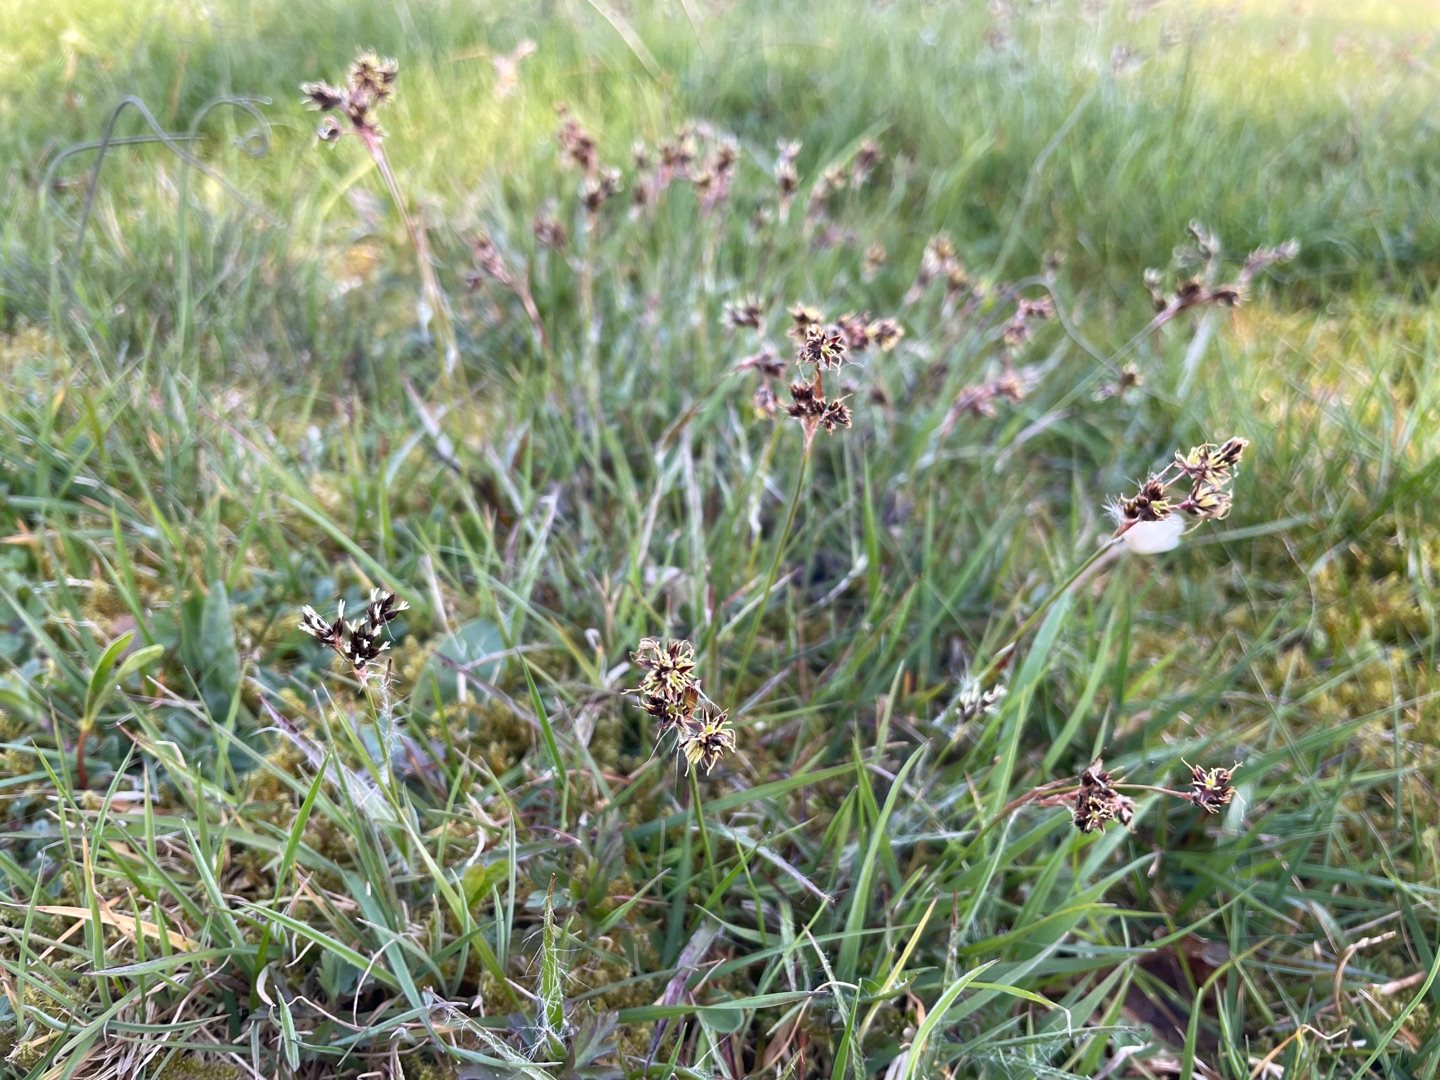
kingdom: Plantae
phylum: Tracheophyta
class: Liliopsida
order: Poales
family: Juncaceae
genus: Luzula
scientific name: Luzula campestris
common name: Mark-frytle
